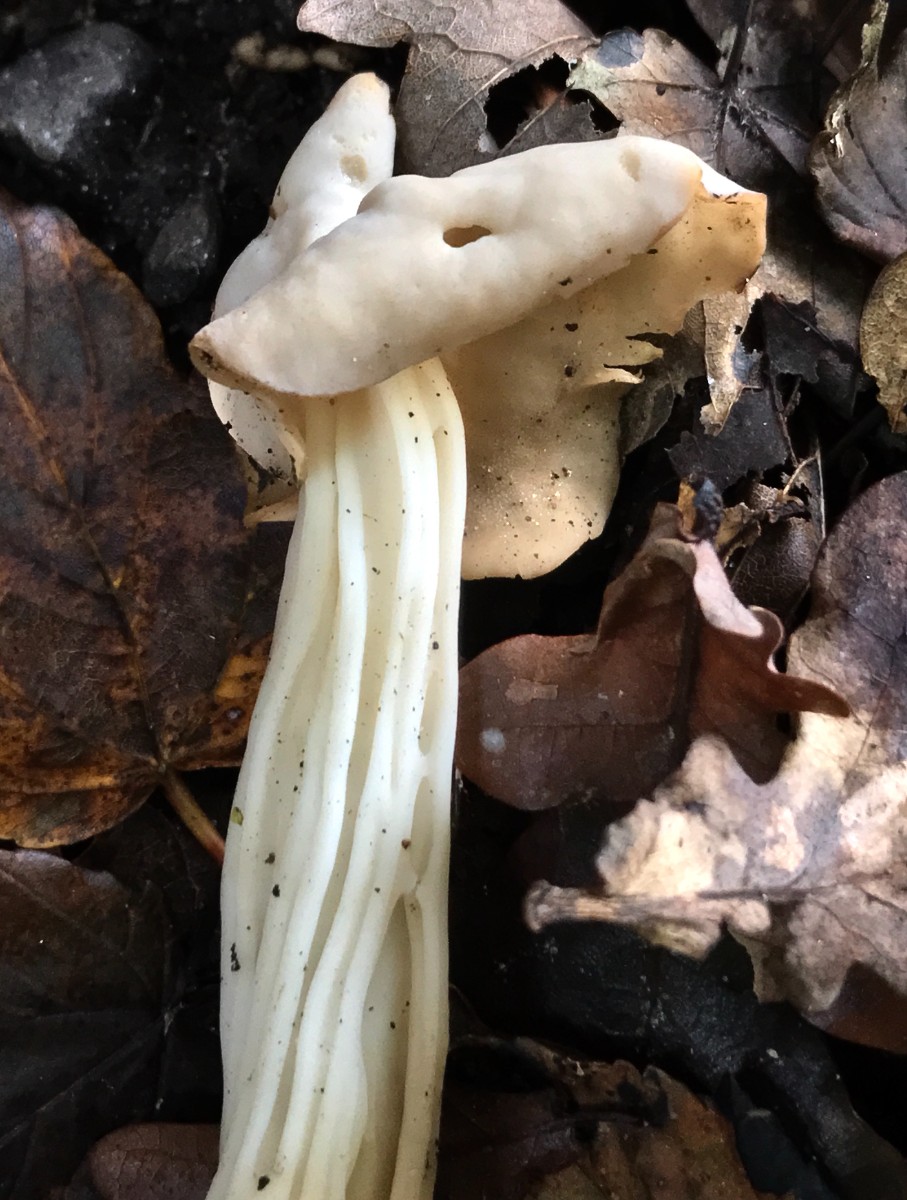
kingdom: Fungi
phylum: Ascomycota
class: Pezizomycetes
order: Pezizales
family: Helvellaceae
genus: Helvella
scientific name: Helvella crispa
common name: kruset foldhat
